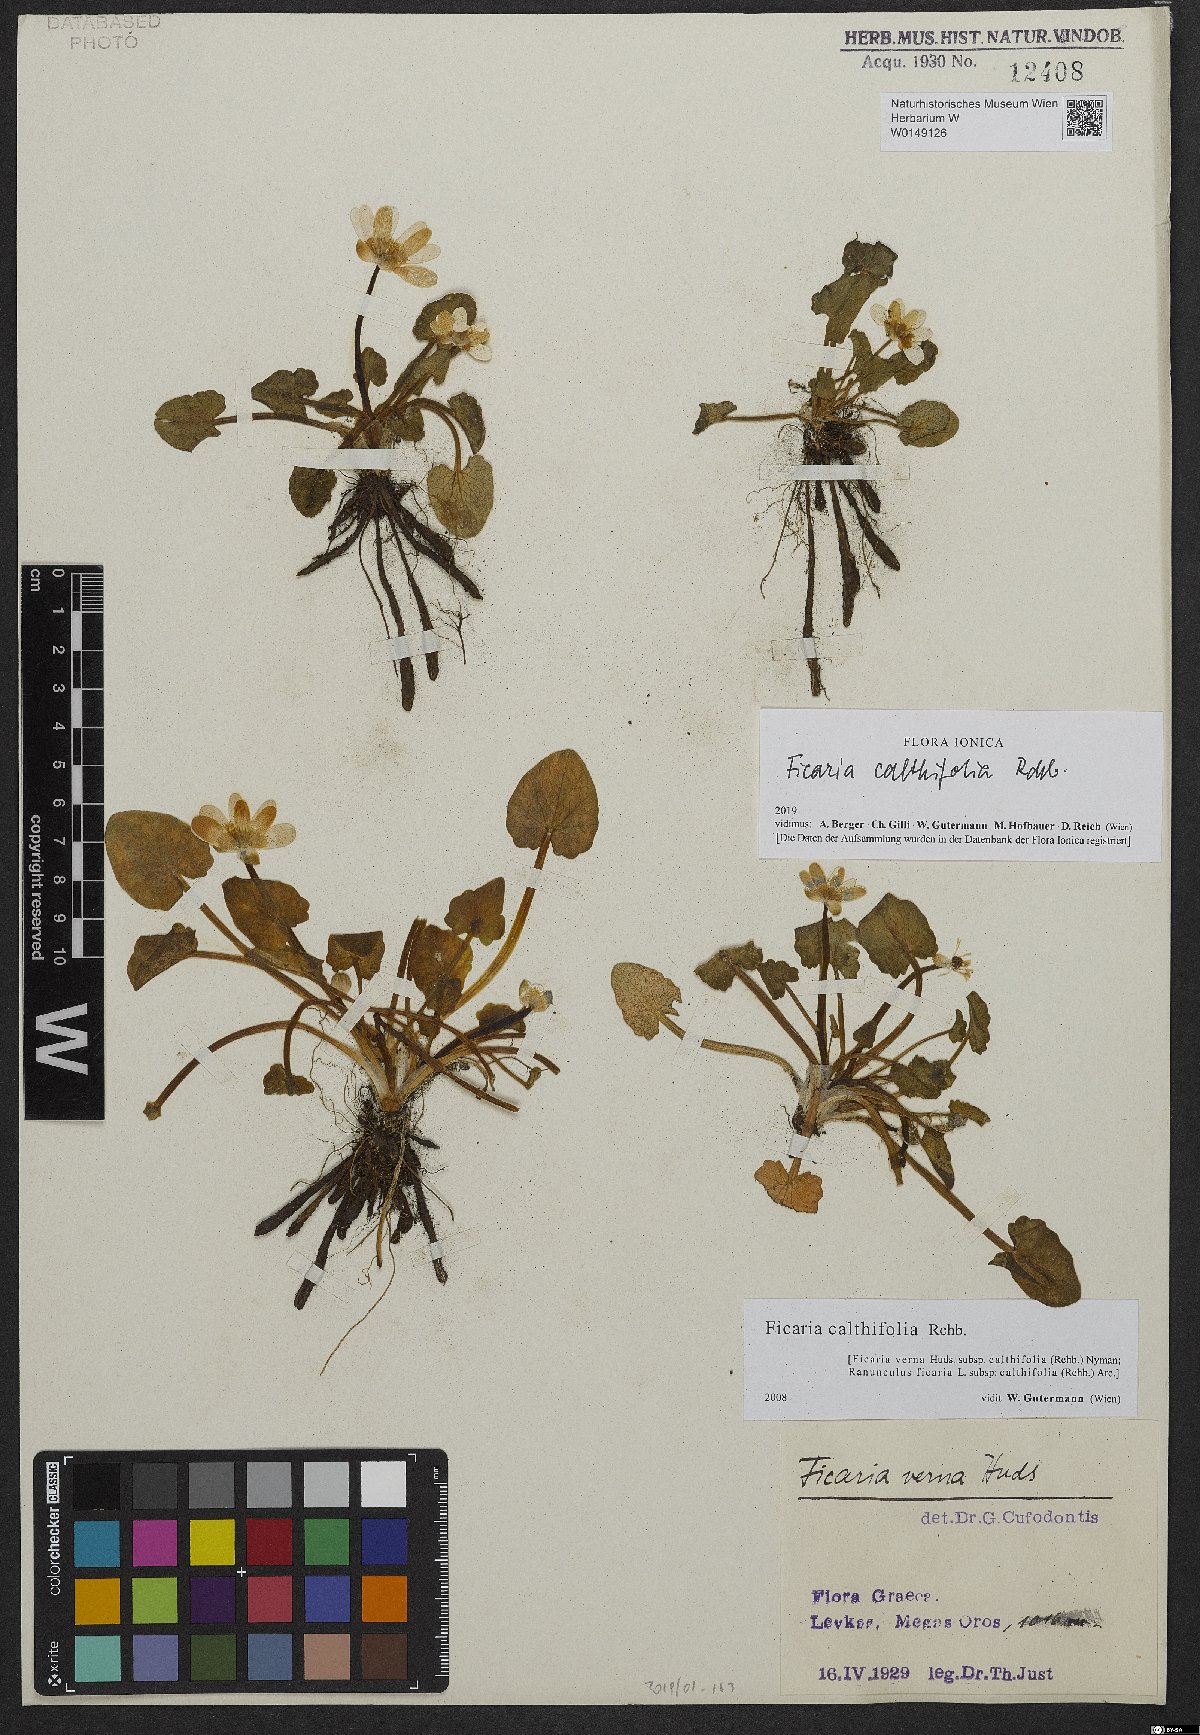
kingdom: Plantae
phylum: Tracheophyta
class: Magnoliopsida
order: Ranunculales
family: Ranunculaceae
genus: Ficaria
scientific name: Ficaria calthifolia
